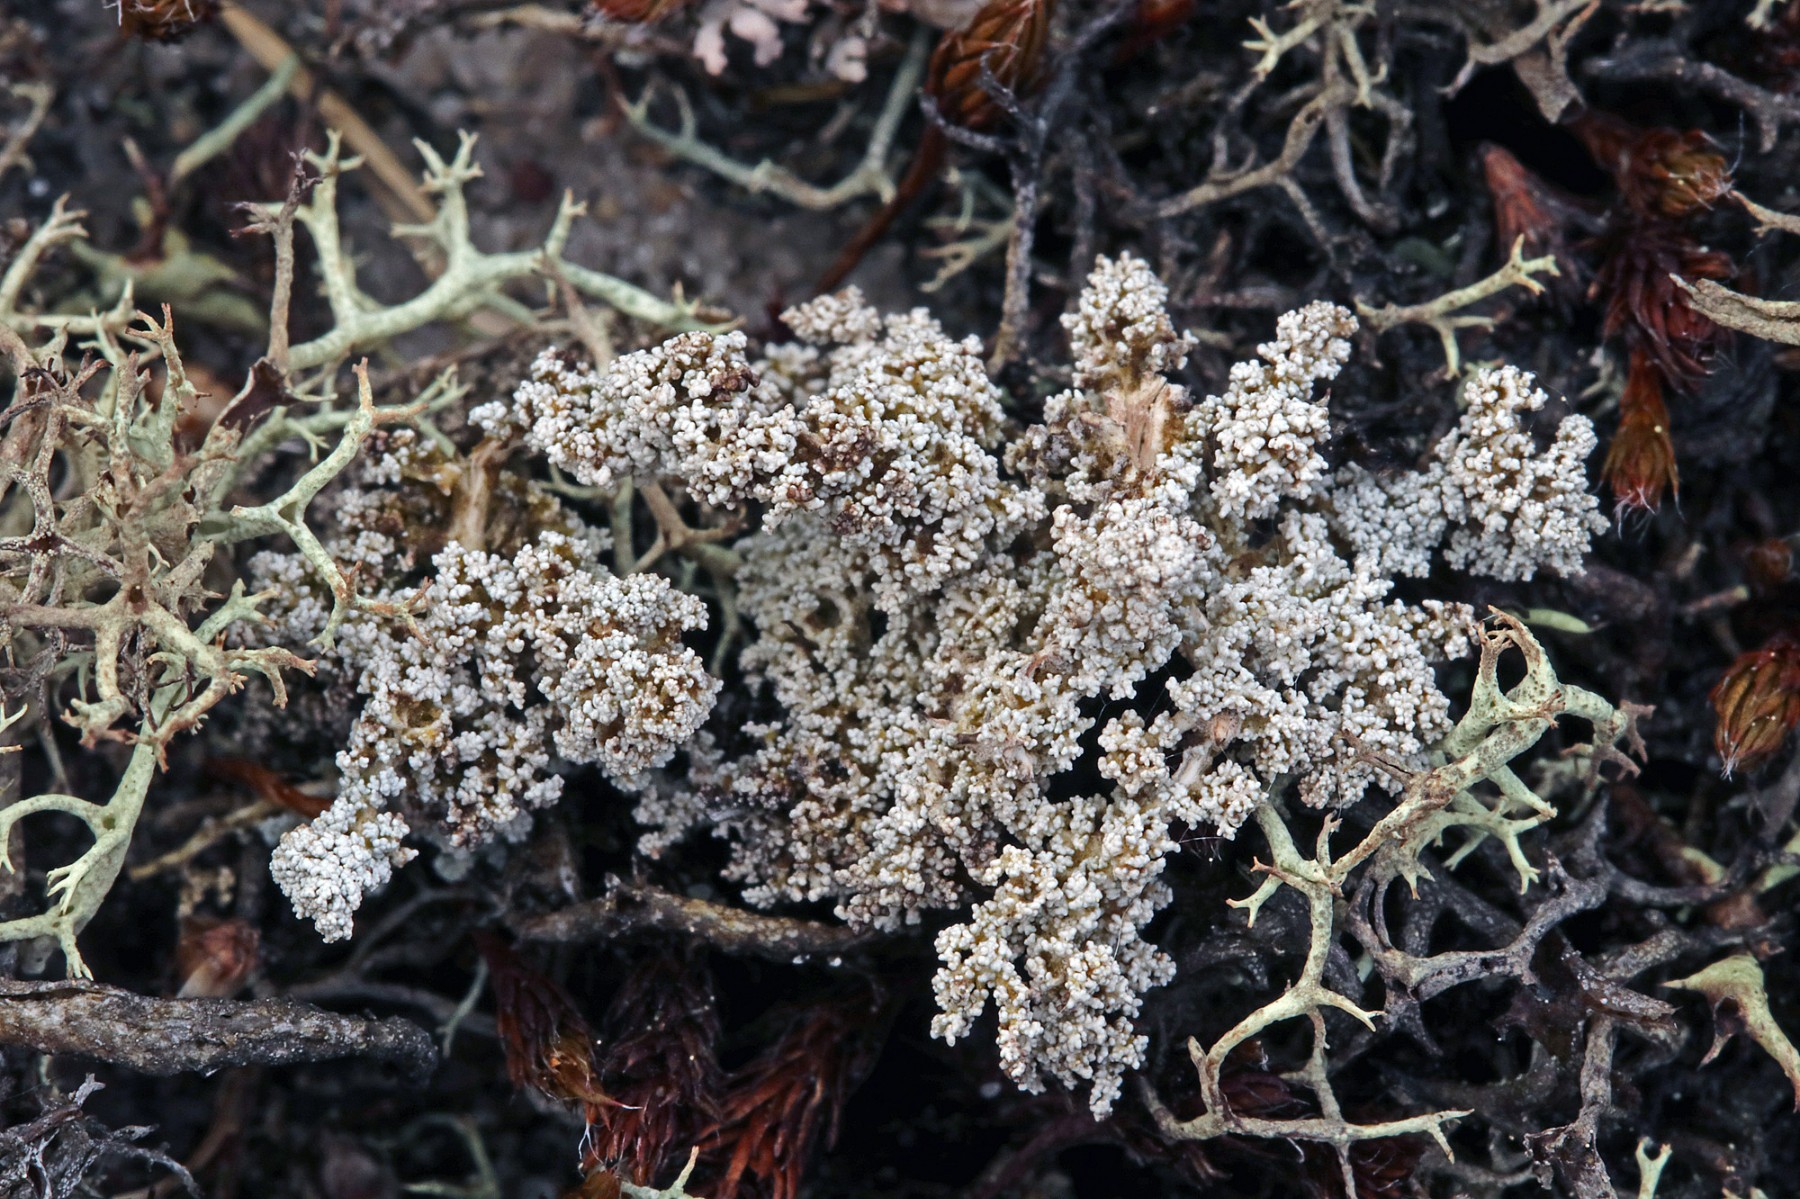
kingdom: Fungi
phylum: Ascomycota
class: Lecanoromycetes
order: Lecanorales
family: Stereocaulaceae
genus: Stereocaulon
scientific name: Stereocaulon saxatile
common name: klit-korallav
